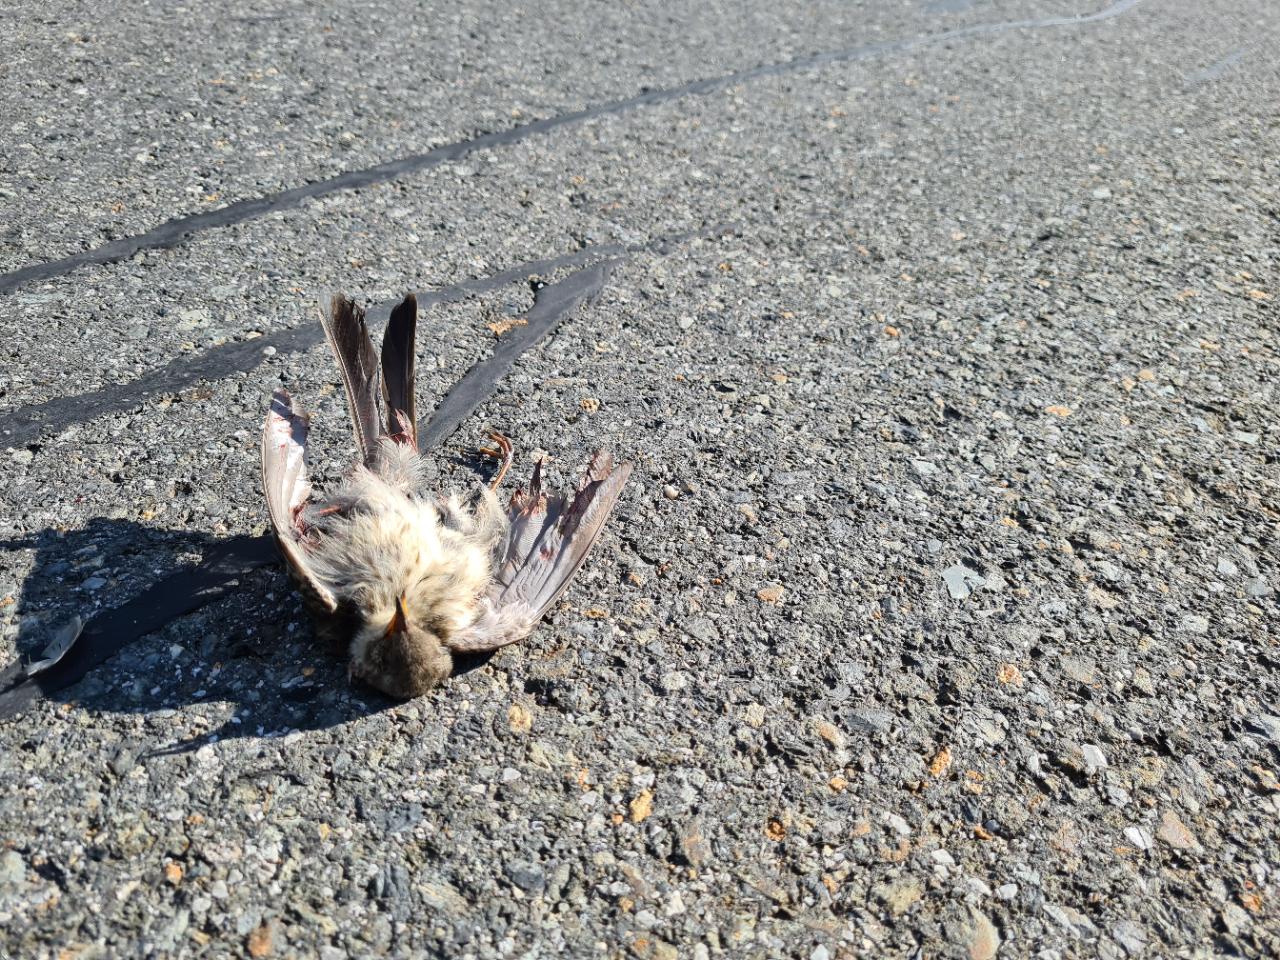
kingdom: Animalia
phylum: Chordata
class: Aves
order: Passeriformes
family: Motacillidae
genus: Anthus
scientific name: Anthus spinoletta
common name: Water pipit
